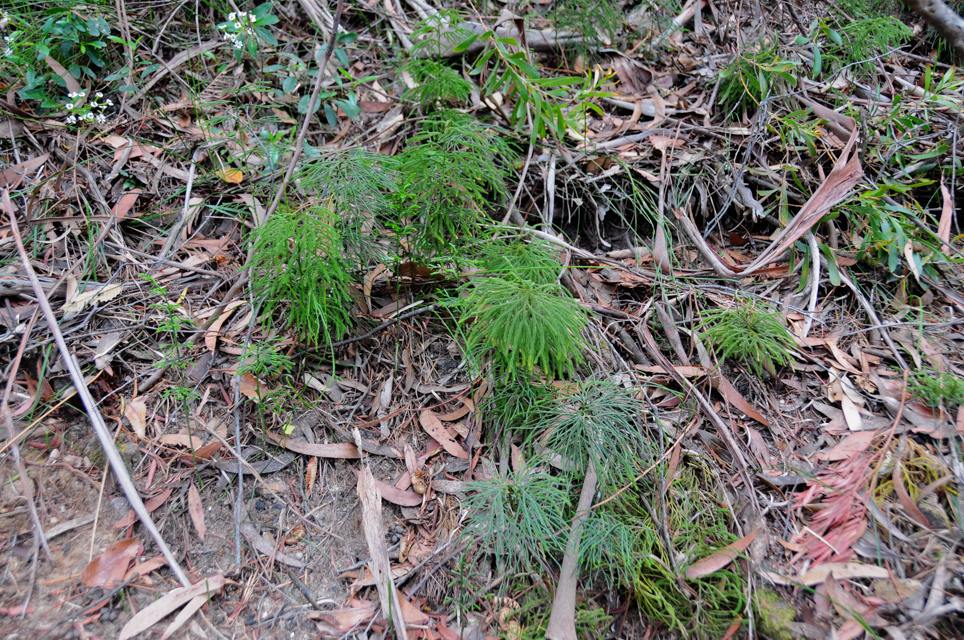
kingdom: Plantae
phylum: Tracheophyta
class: Lycopodiopsida
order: Lycopodiales
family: Lycopodiaceae
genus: Pseudolycopodium
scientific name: Pseudolycopodium densum
